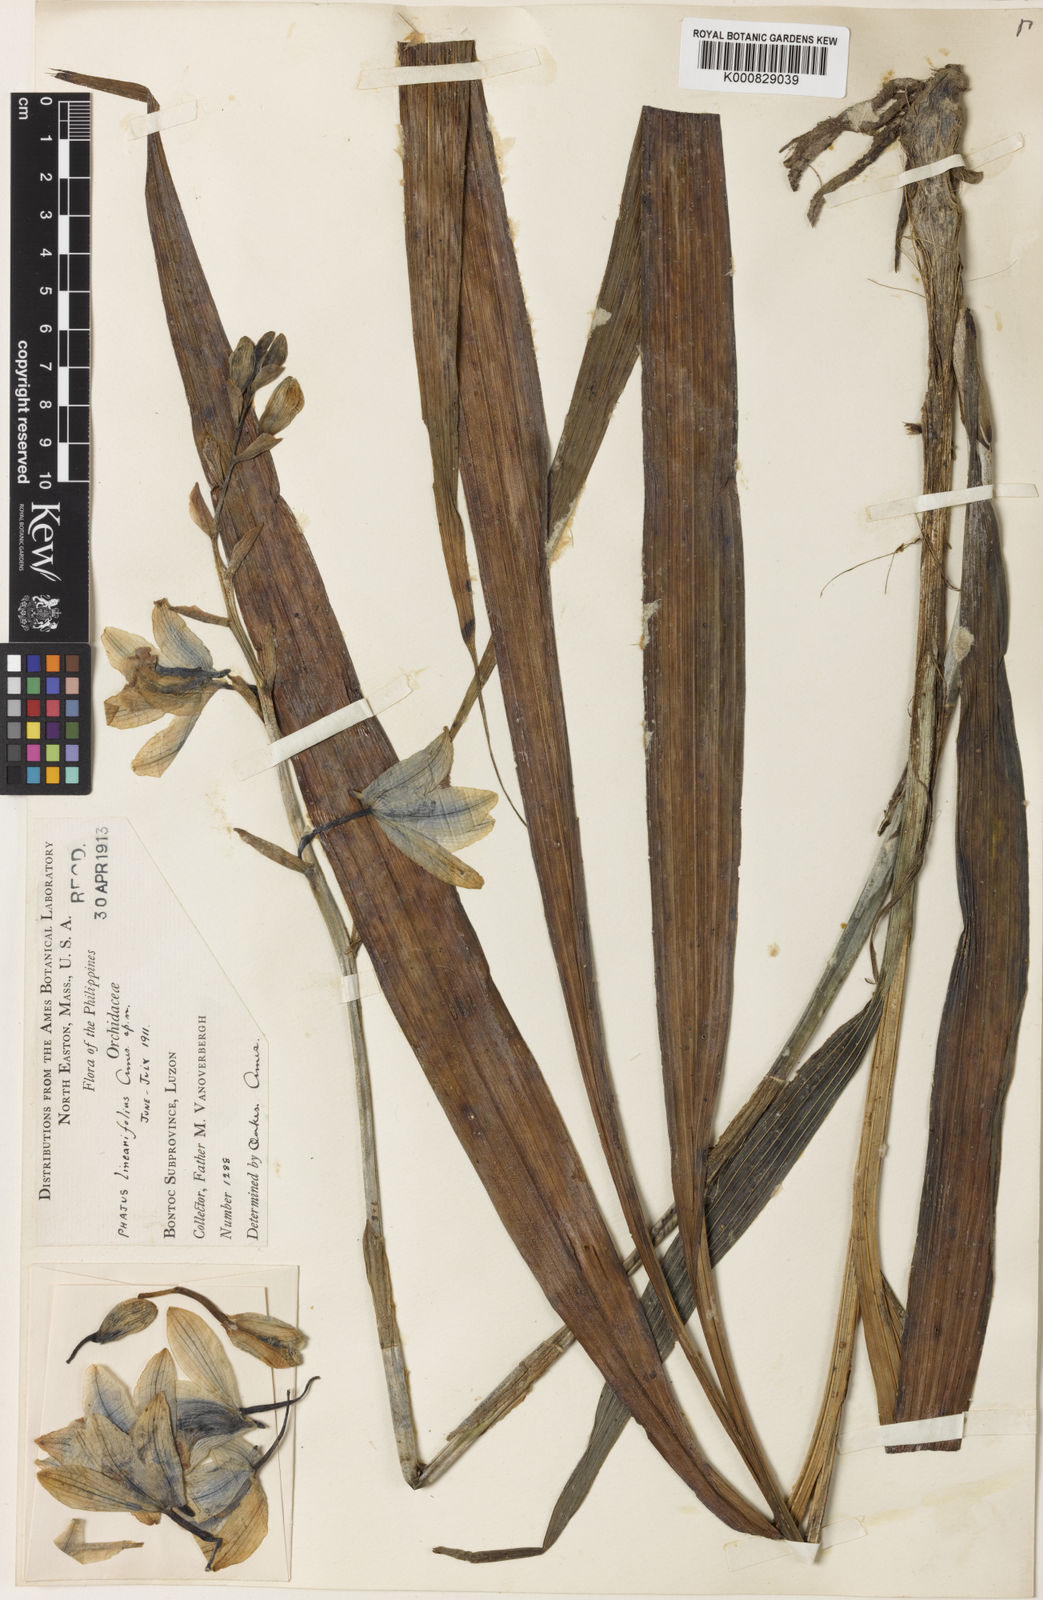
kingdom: Plantae
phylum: Tracheophyta
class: Liliopsida
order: Asparagales
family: Orchidaceae
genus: Calanthe
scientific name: Calanthe woodfordii
